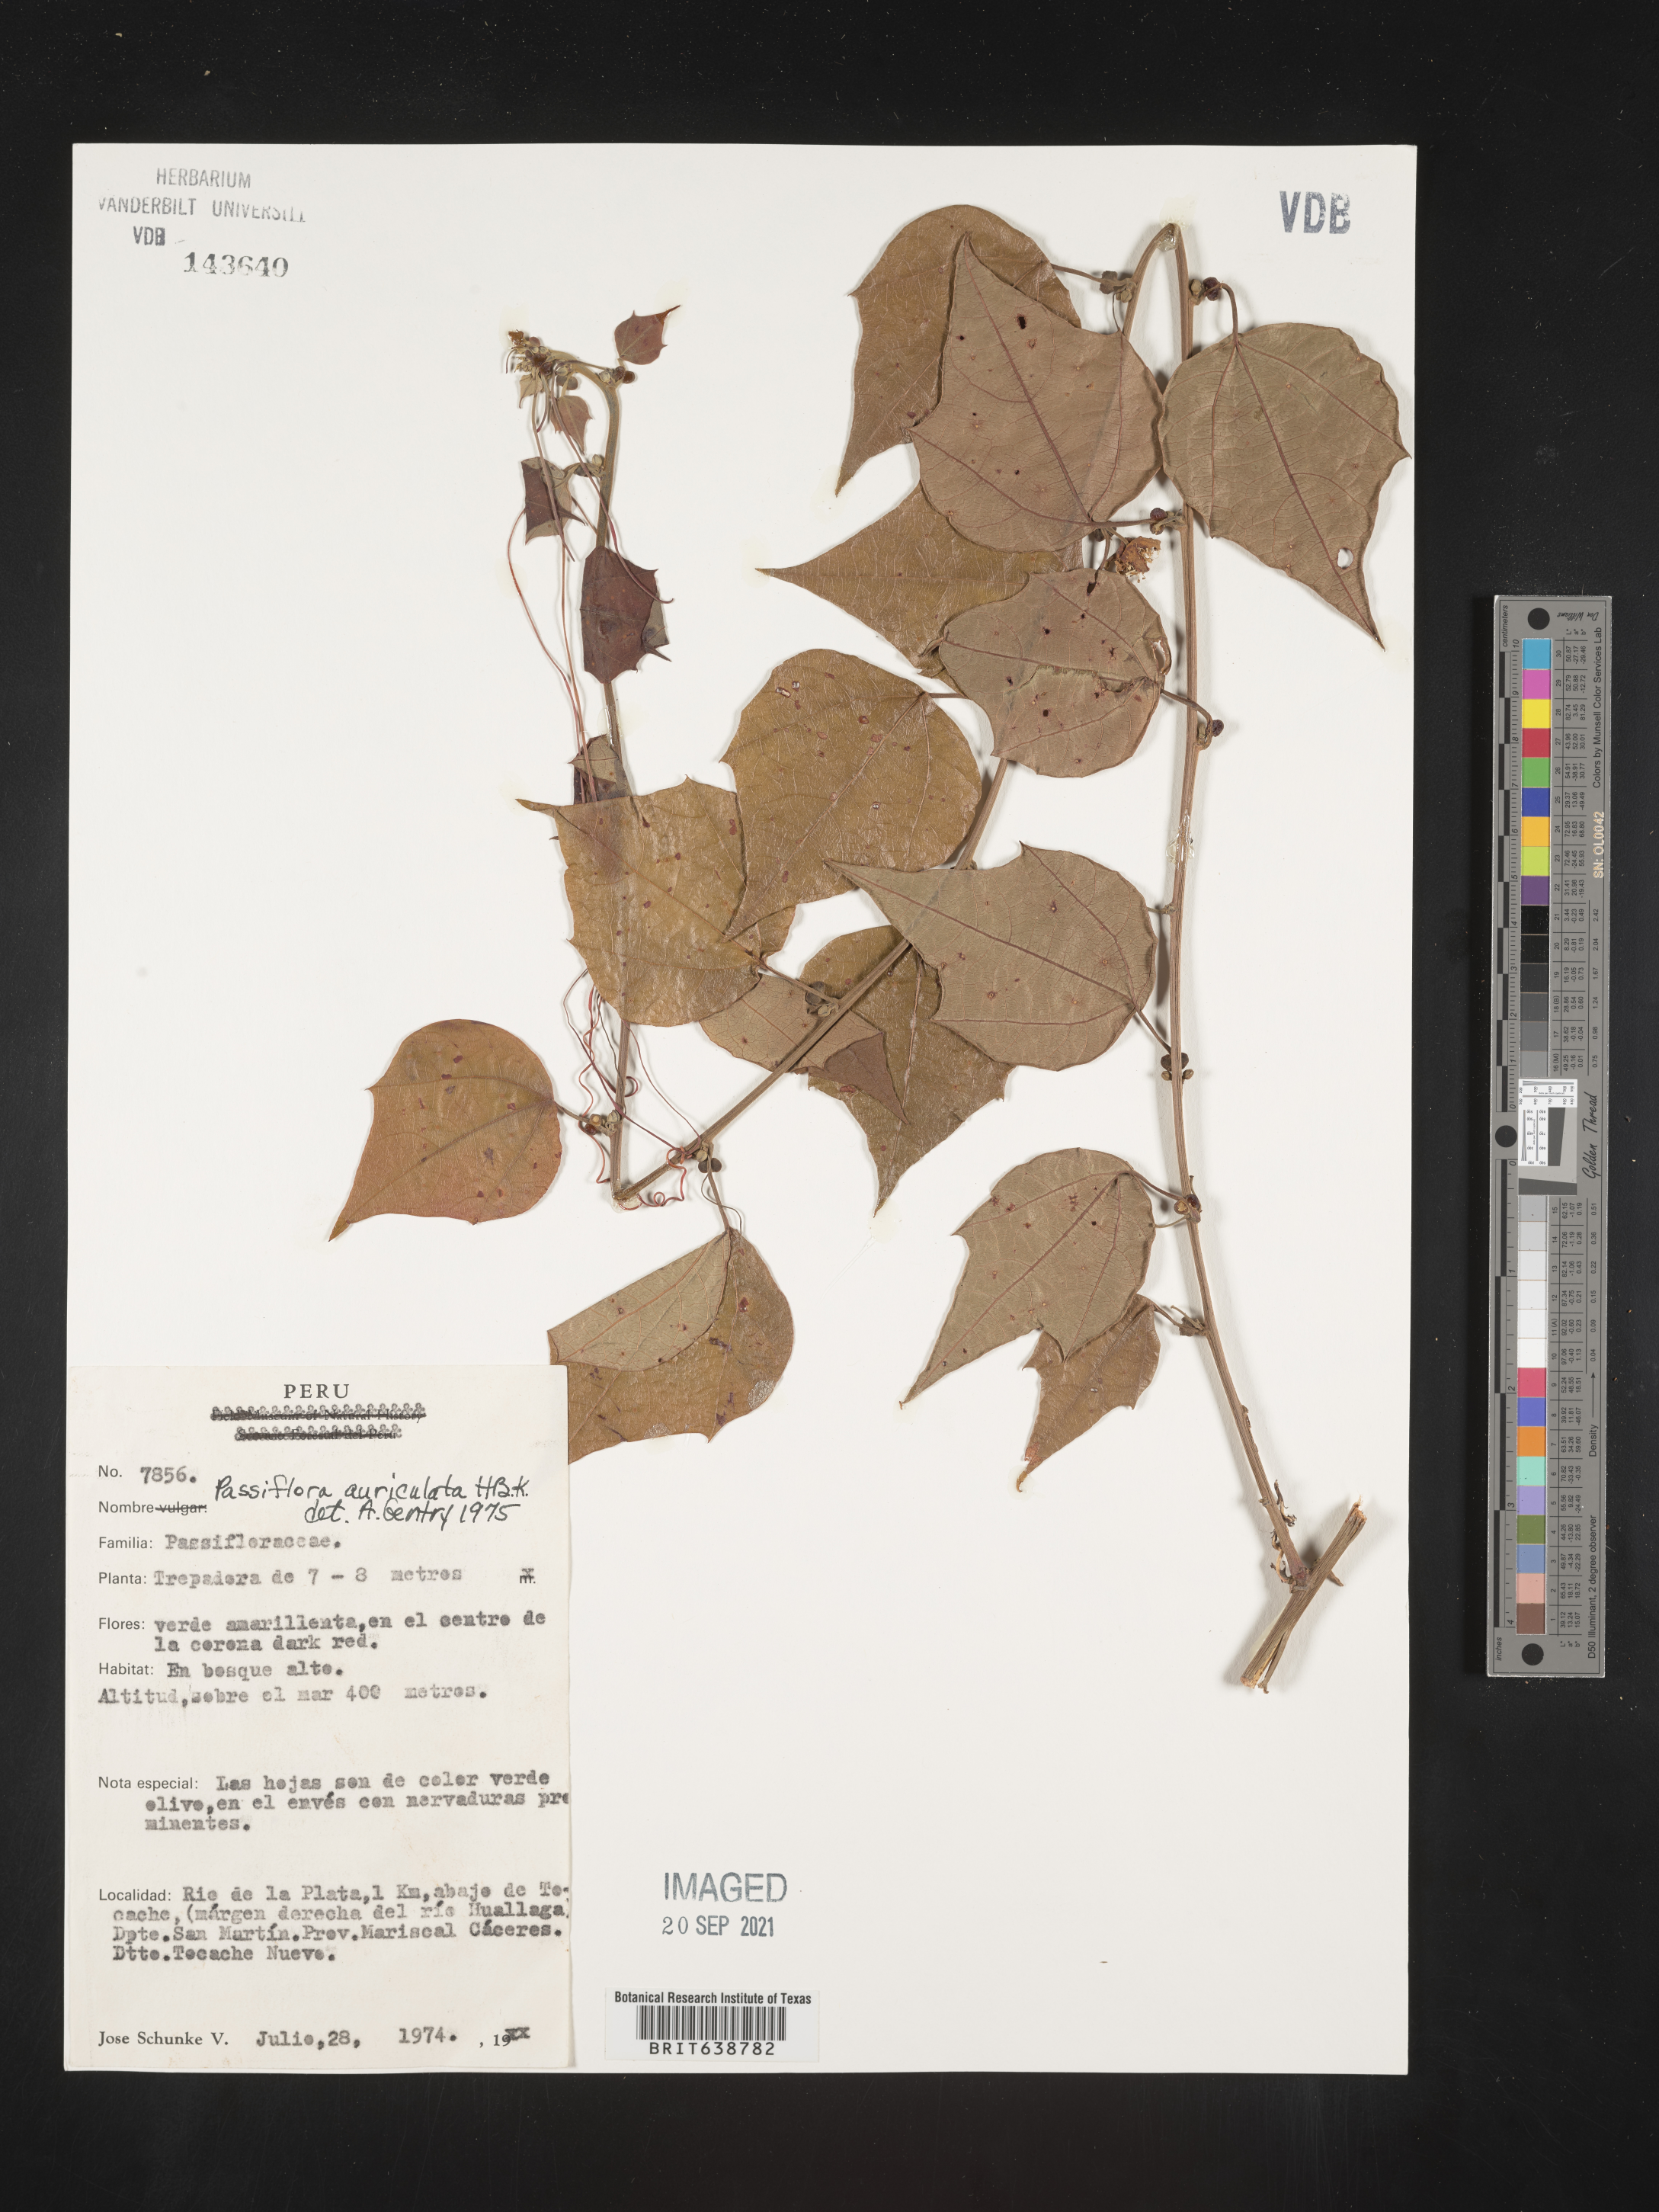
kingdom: Plantae
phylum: Tracheophyta
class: Magnoliopsida
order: Malpighiales
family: Passifloraceae
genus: Passiflora
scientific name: Passiflora
